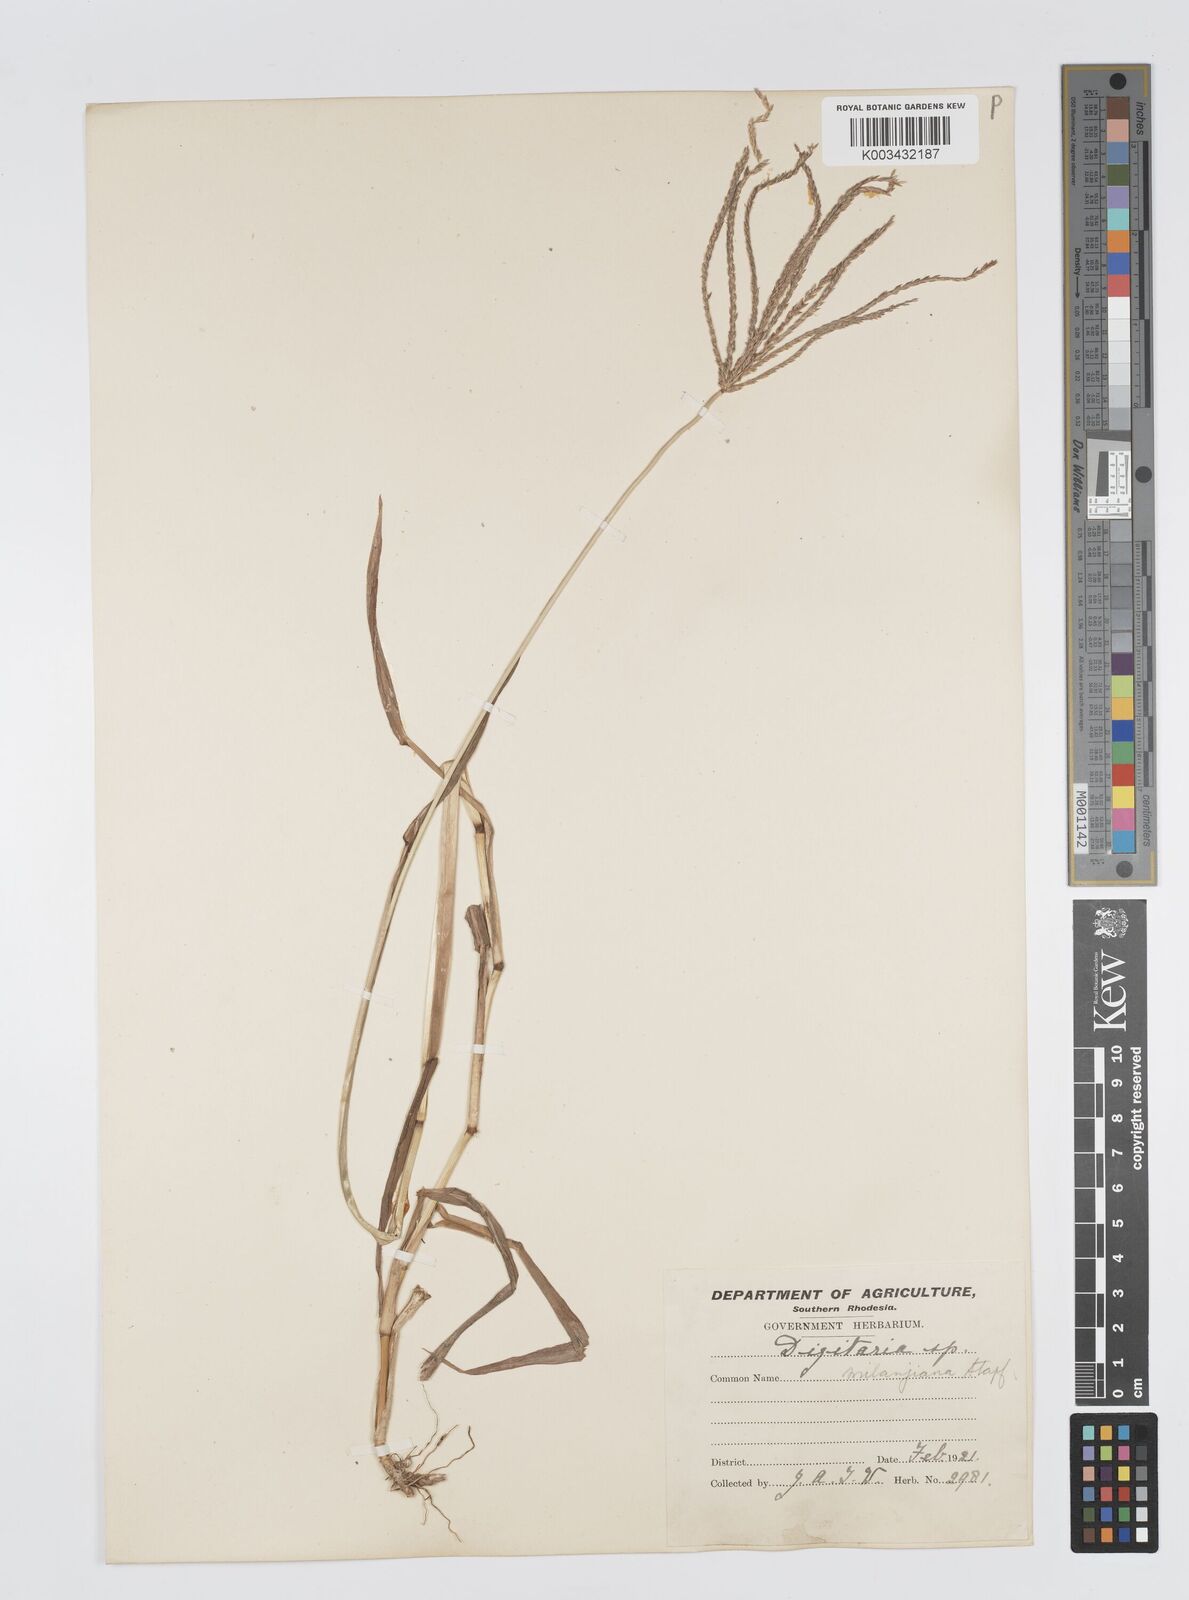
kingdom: Plantae
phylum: Tracheophyta
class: Liliopsida
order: Poales
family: Poaceae
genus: Digitaria
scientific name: Digitaria milanjiana
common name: Madagascar crabgrass
